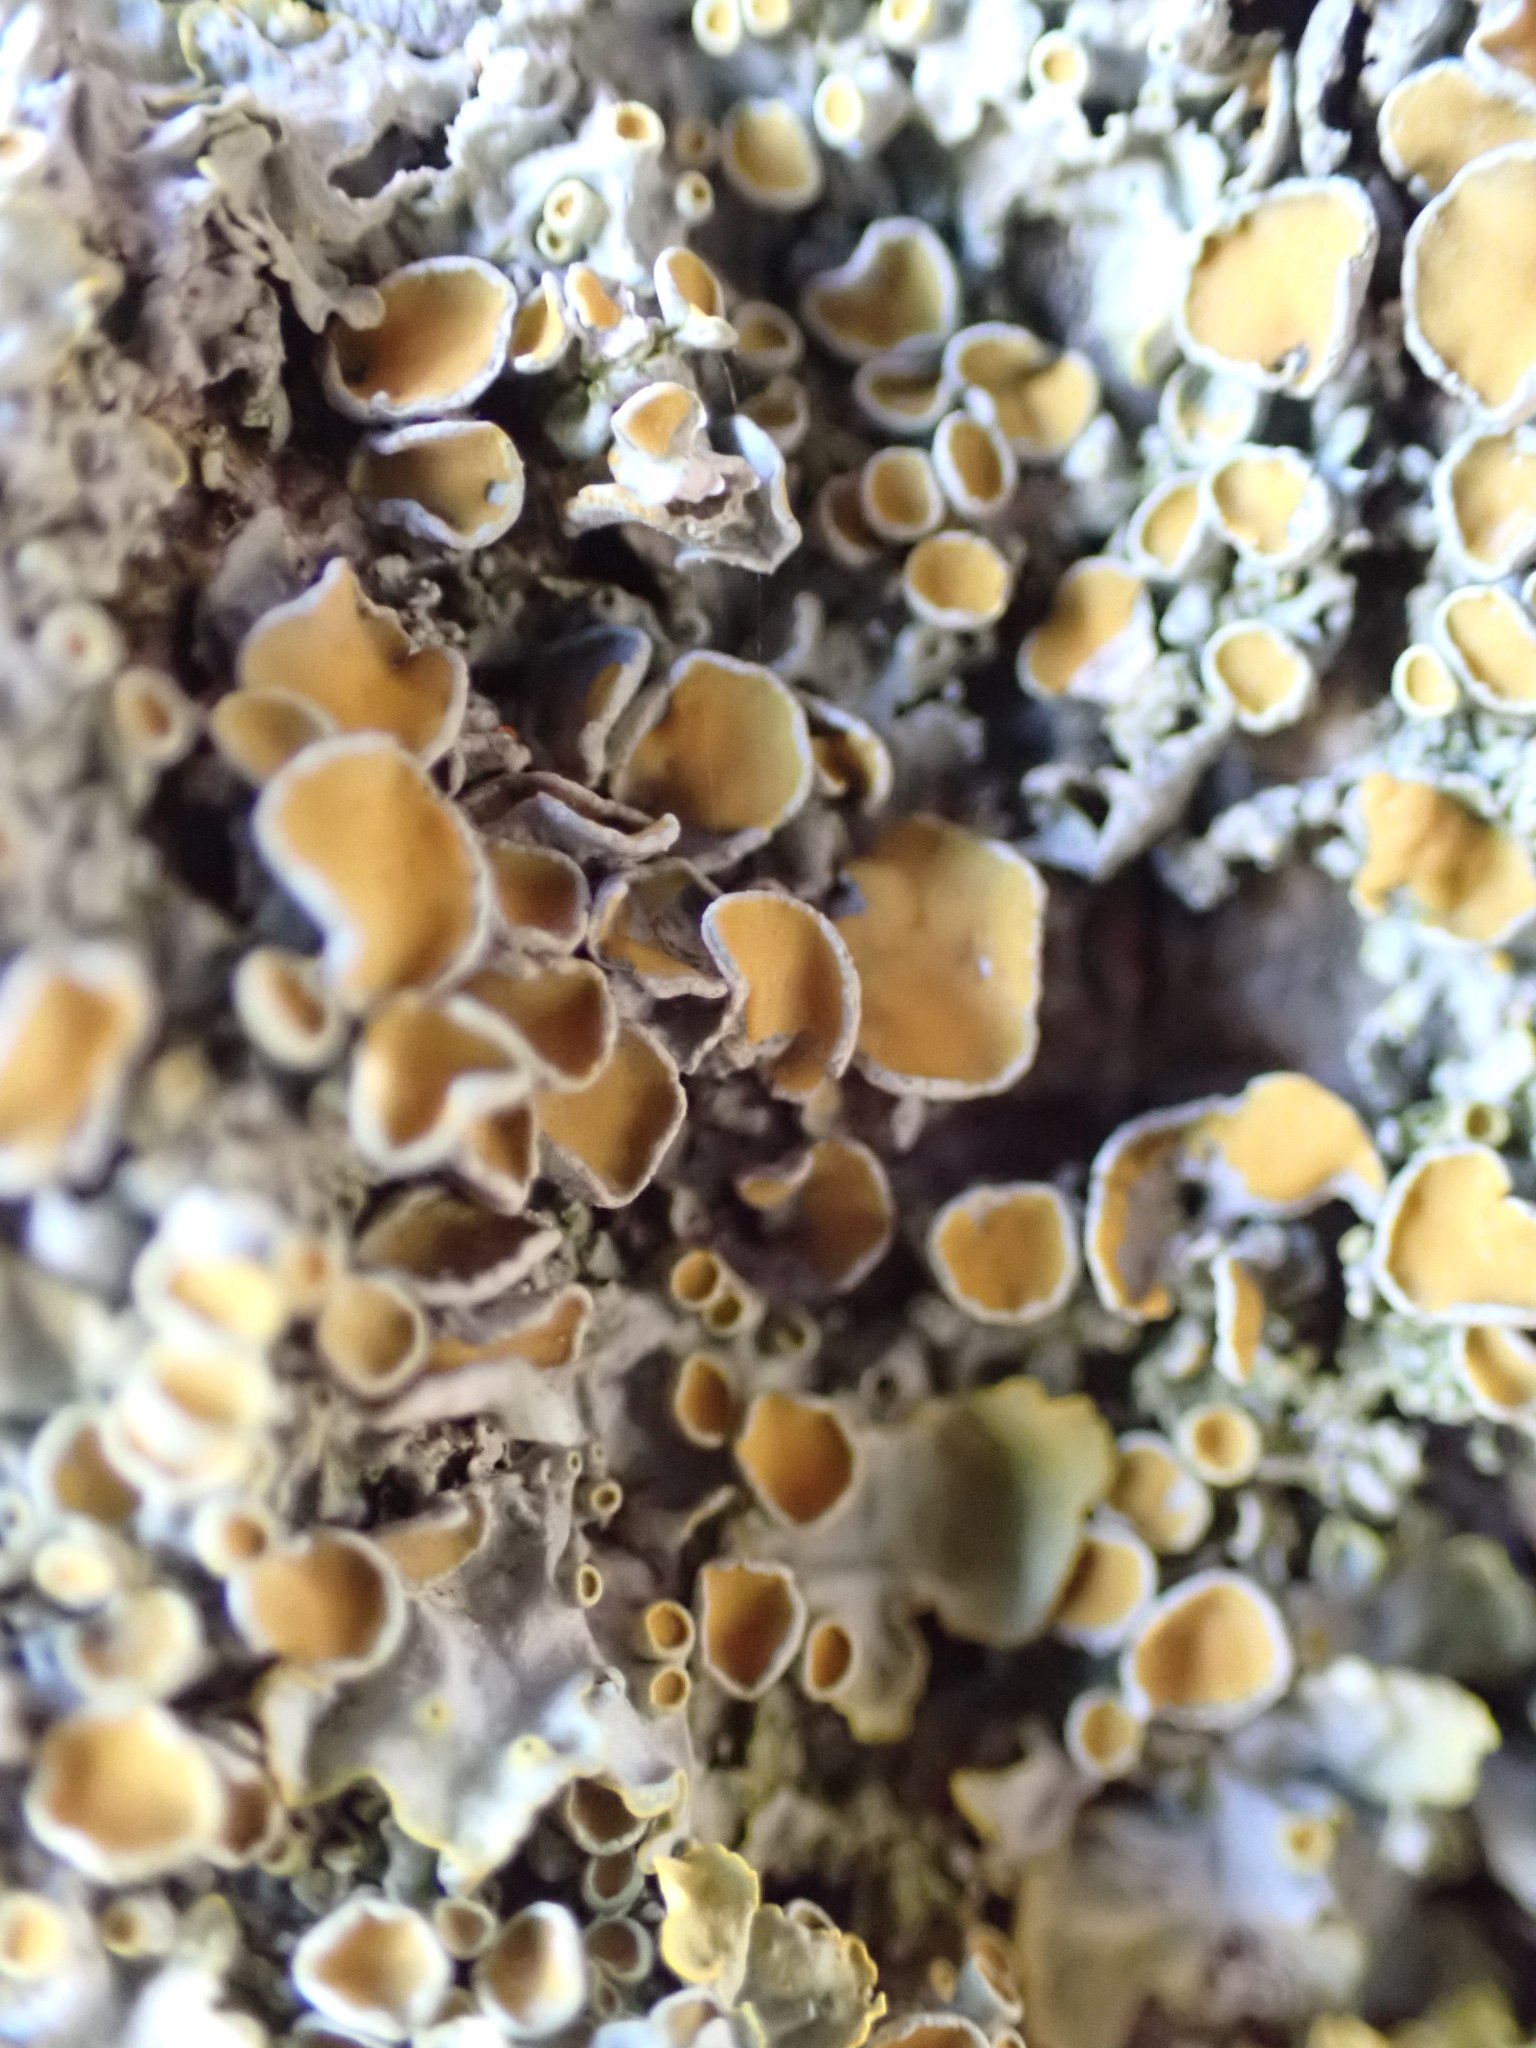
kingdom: Fungi
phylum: Ascomycota
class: Lecanoromycetes
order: Teloschistales
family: Teloschistaceae
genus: Xanthoria
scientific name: Xanthoria parietina
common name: almindelig væggelav
